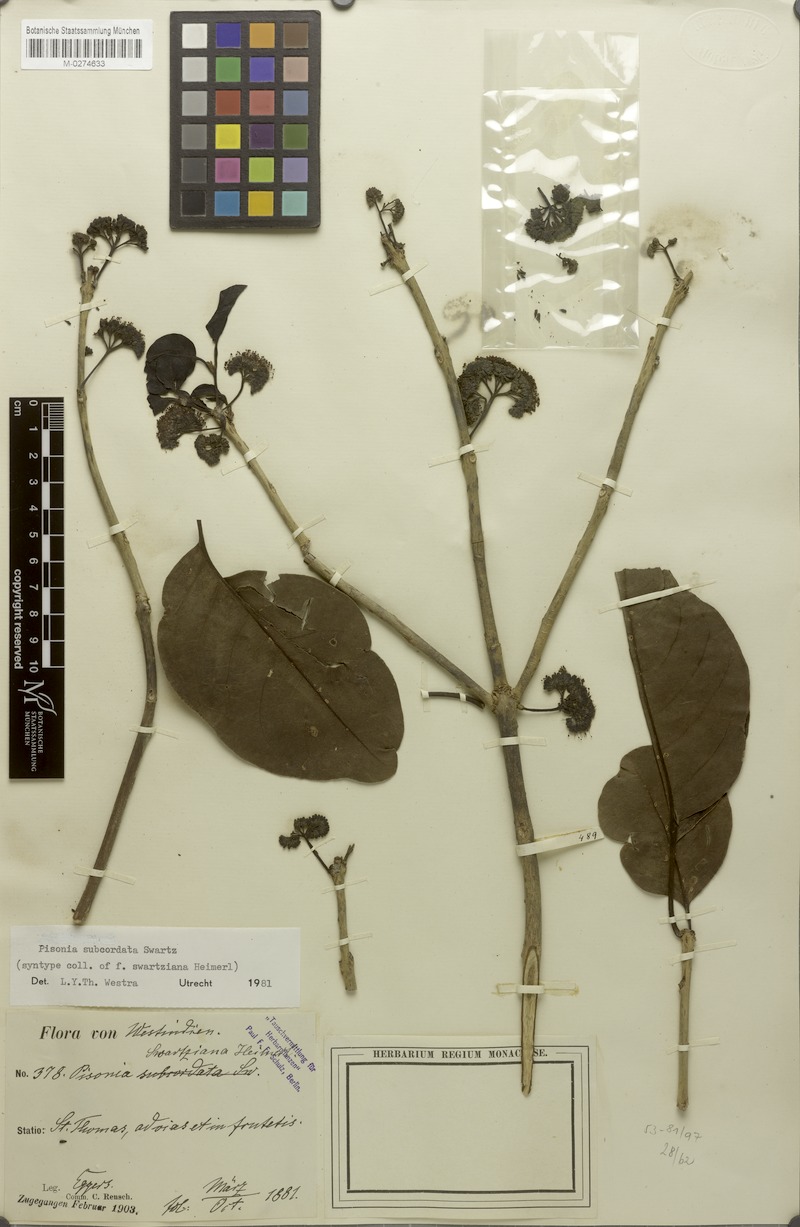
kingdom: Plantae
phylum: Tracheophyta
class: Magnoliopsida
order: Caryophyllales
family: Nyctaginaceae
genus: Pisonia
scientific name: Pisonia subcordata
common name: Mampoo
